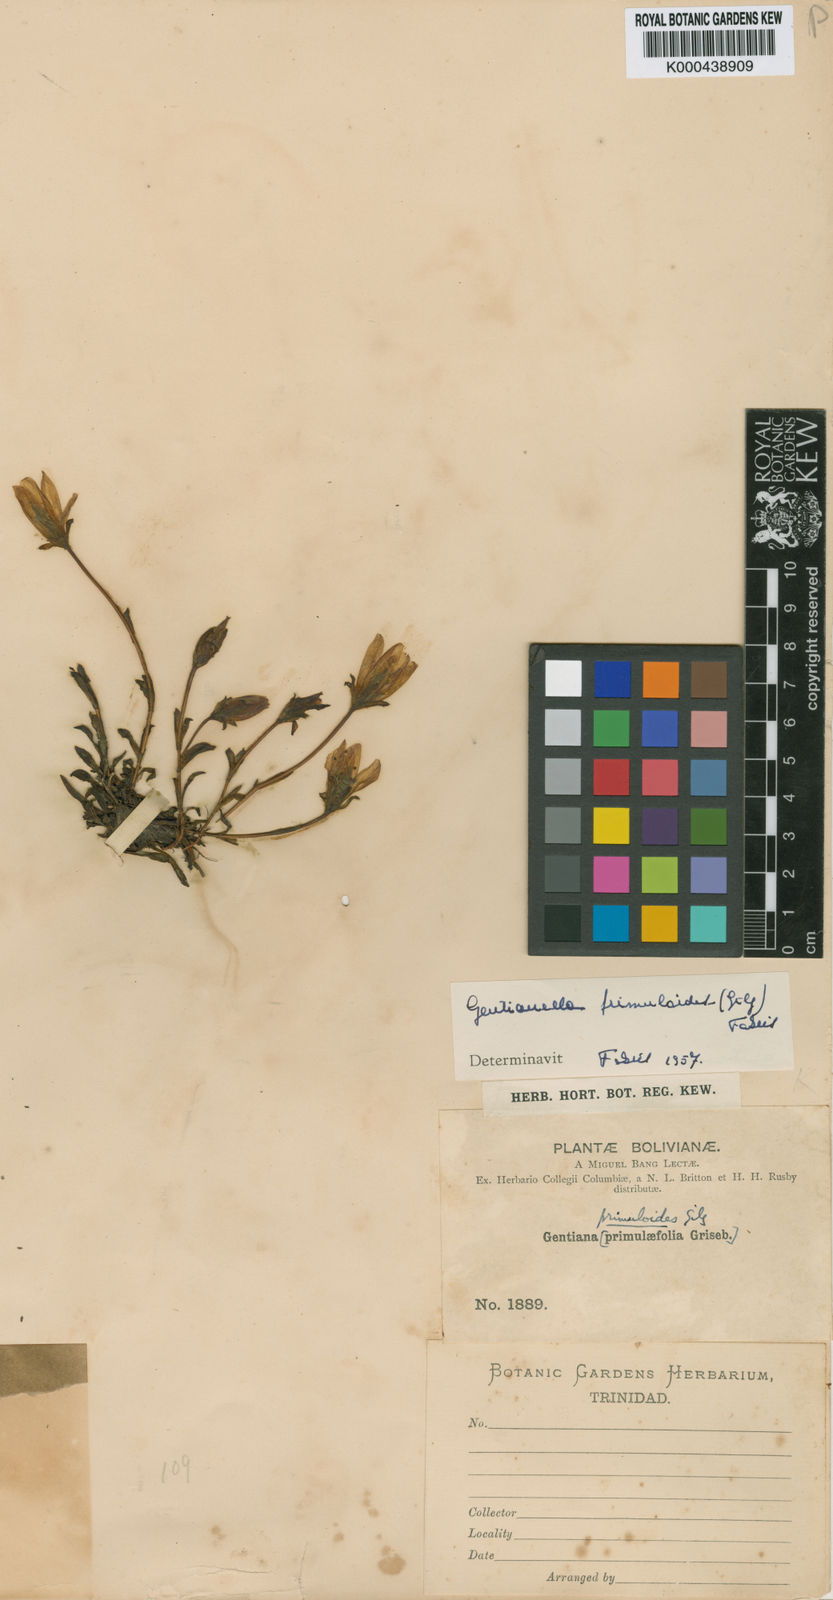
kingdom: Plantae
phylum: Tracheophyta
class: Magnoliopsida
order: Gentianales
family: Gentianaceae
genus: Gentianella
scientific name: Gentianella
